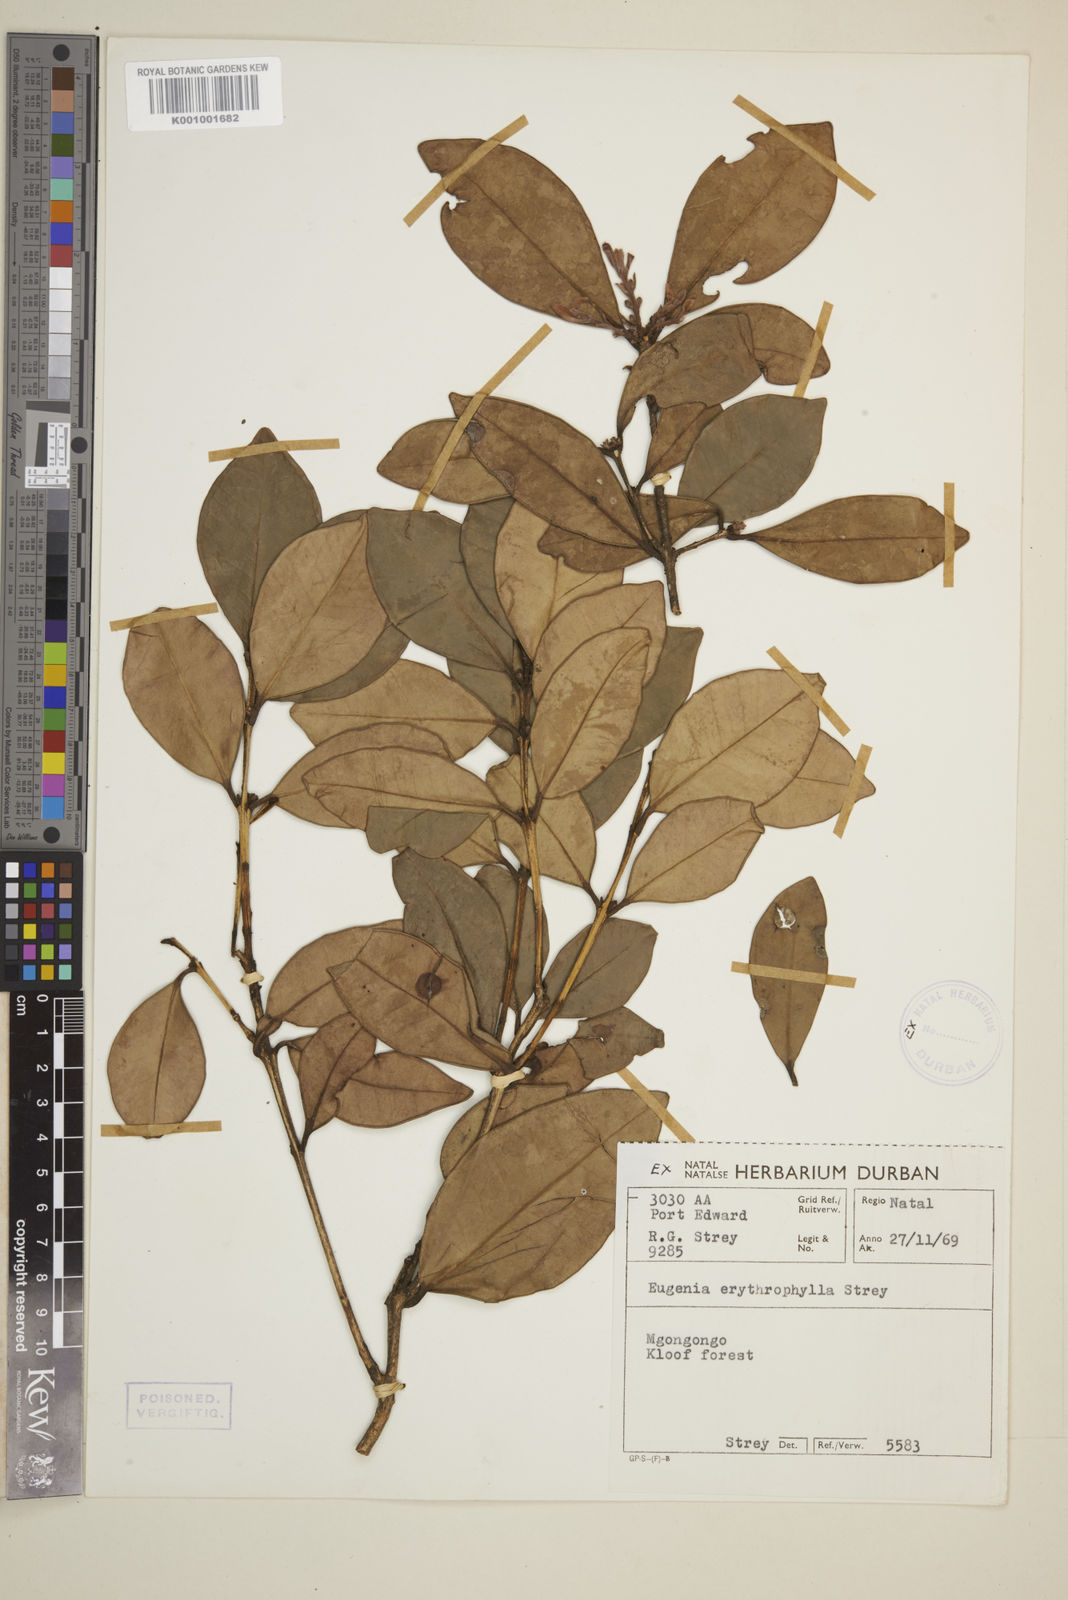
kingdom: Plantae
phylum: Tracheophyta
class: Magnoliopsida
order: Myrtales
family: Myrtaceae
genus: Eugenia
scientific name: Eugenia erythrophylla
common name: Large-leaved myrtle
